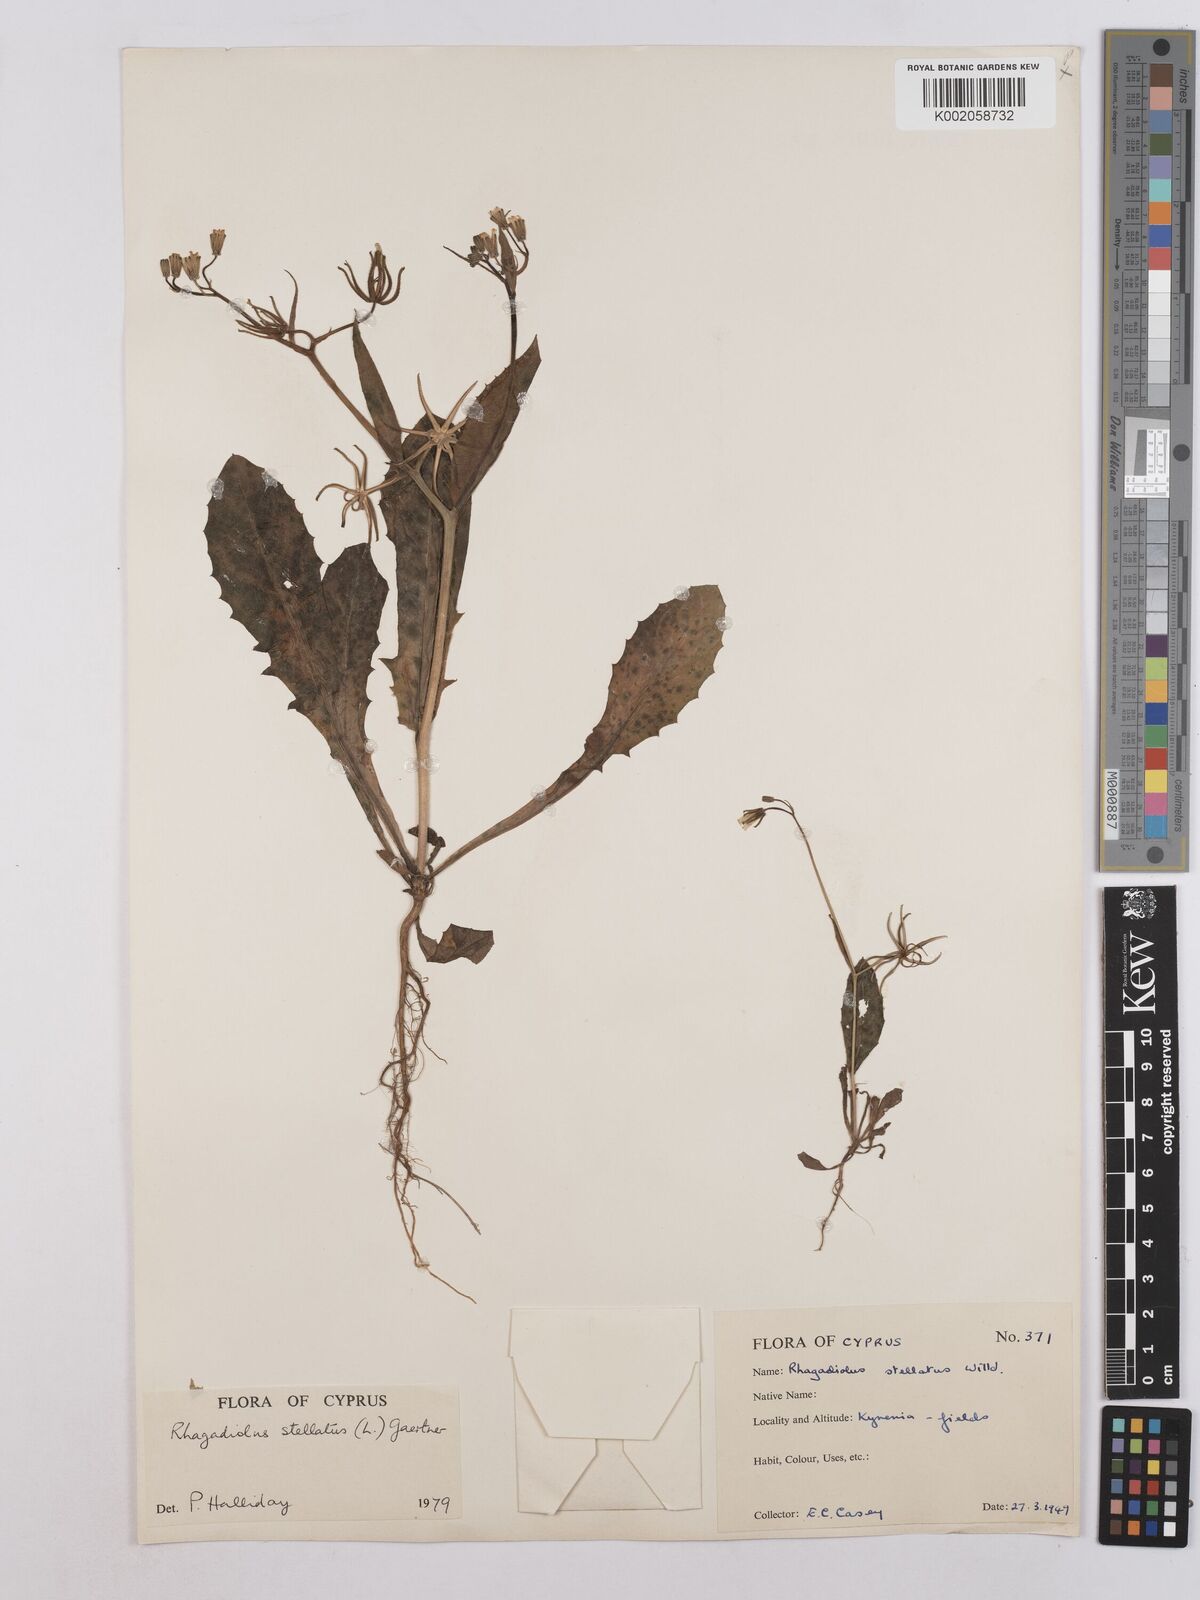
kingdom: Plantae
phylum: Tracheophyta
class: Magnoliopsida
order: Asterales
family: Asteraceae
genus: Rhagadiolus
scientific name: Rhagadiolus stellatus
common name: Star hawkbit
